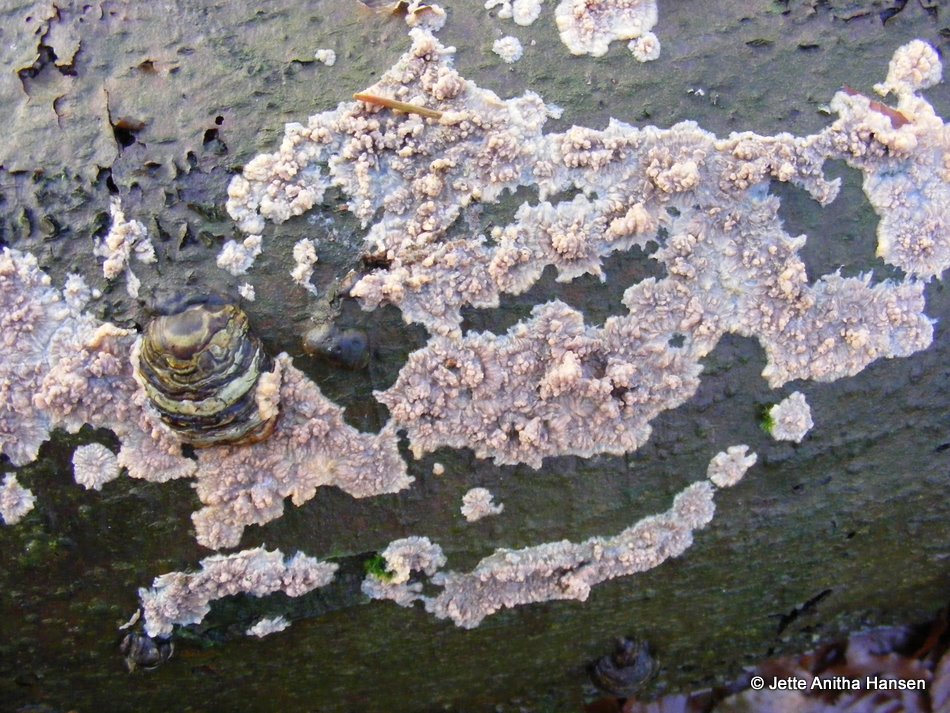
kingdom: Fungi
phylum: Basidiomycota
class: Agaricomycetes
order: Polyporales
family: Meruliaceae
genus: Phlebia
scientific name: Phlebia radiata
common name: stråle-åresvamp
